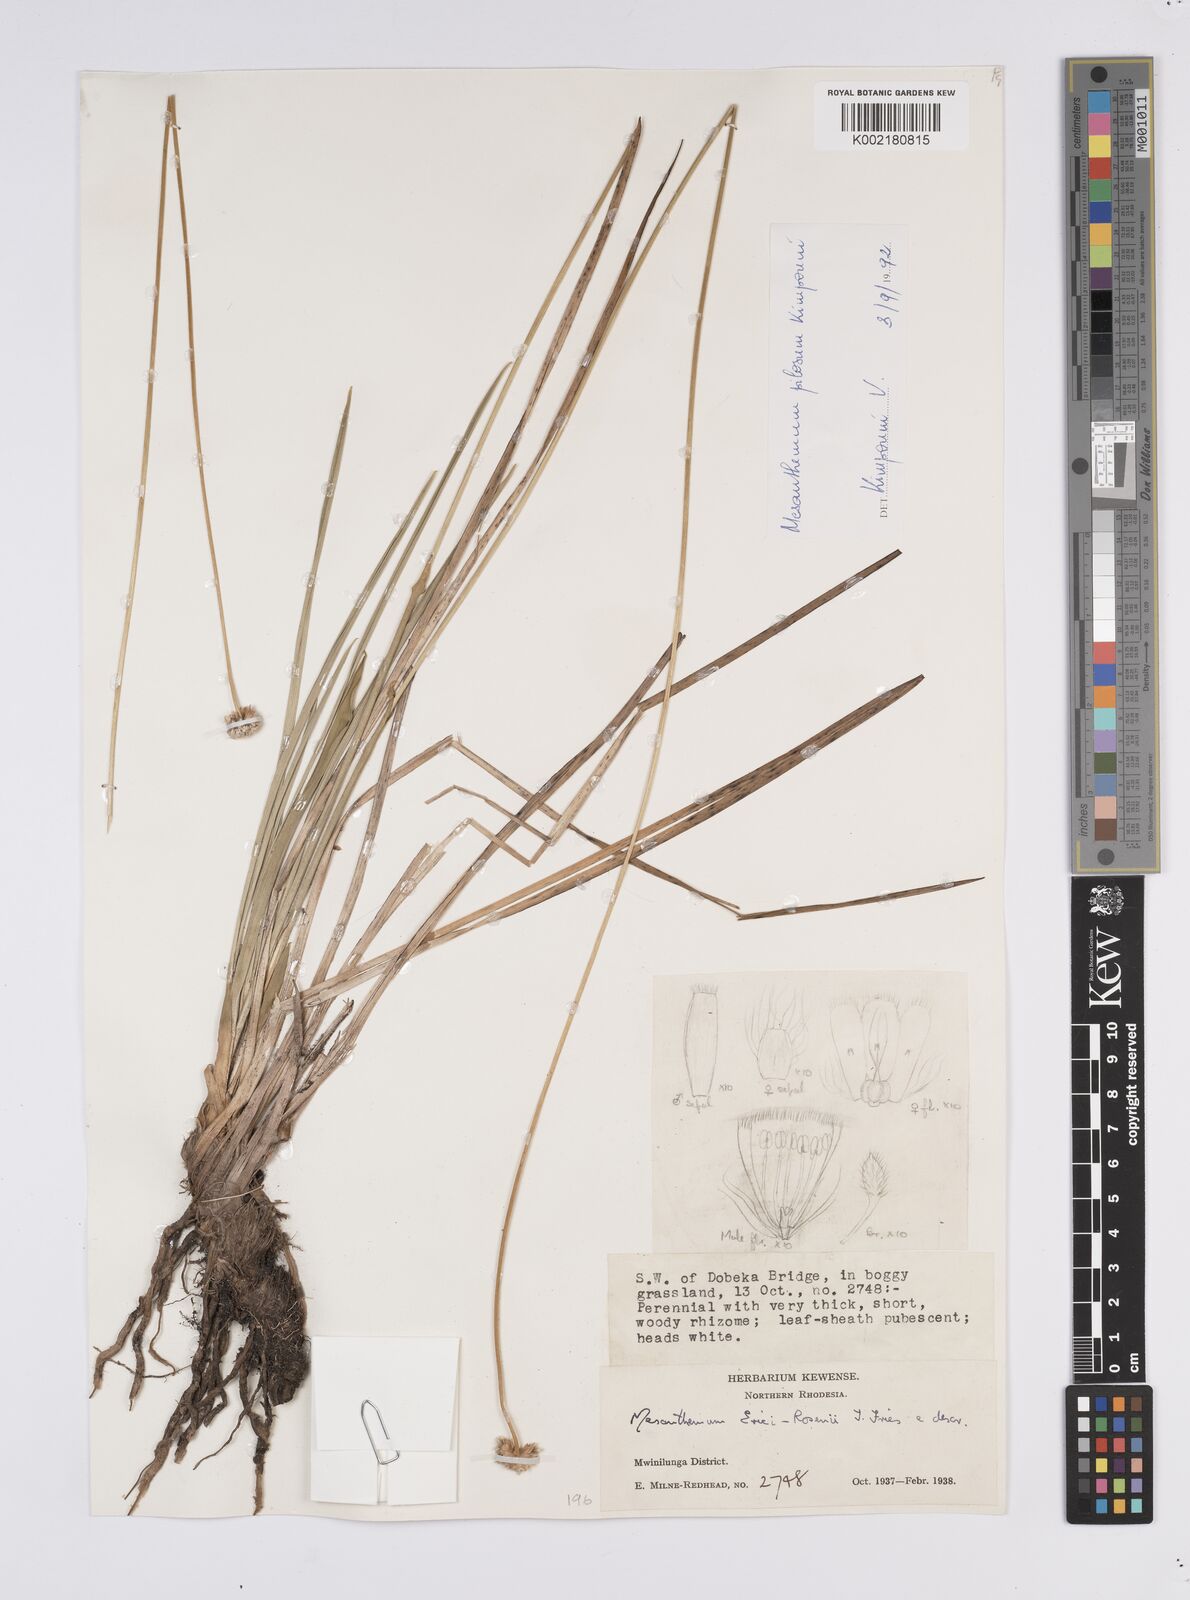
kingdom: Plantae
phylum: Tracheophyta
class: Liliopsida
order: Poales
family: Eriocaulaceae
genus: Mesanthemum
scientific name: Mesanthemum pilosum
